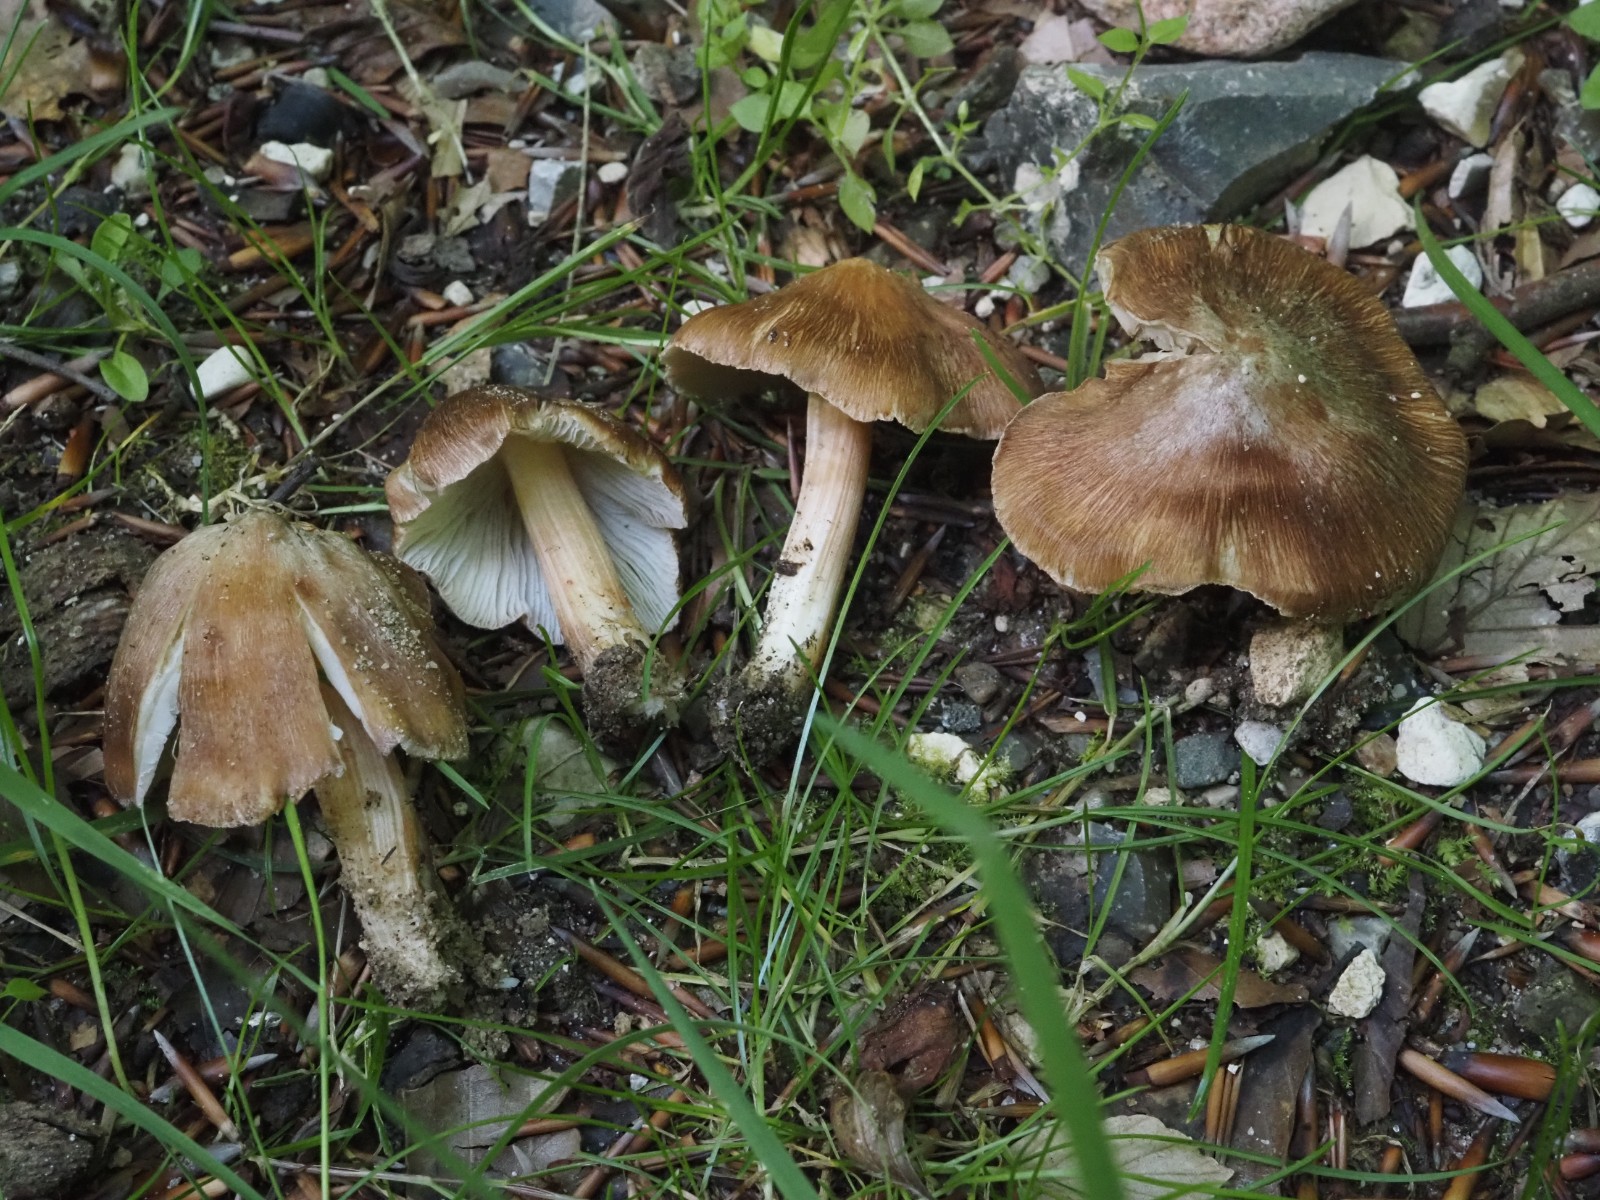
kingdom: Fungi
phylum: Basidiomycota
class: Agaricomycetes
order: Agaricales
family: Inocybaceae
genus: Inosperma
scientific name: Inosperma
